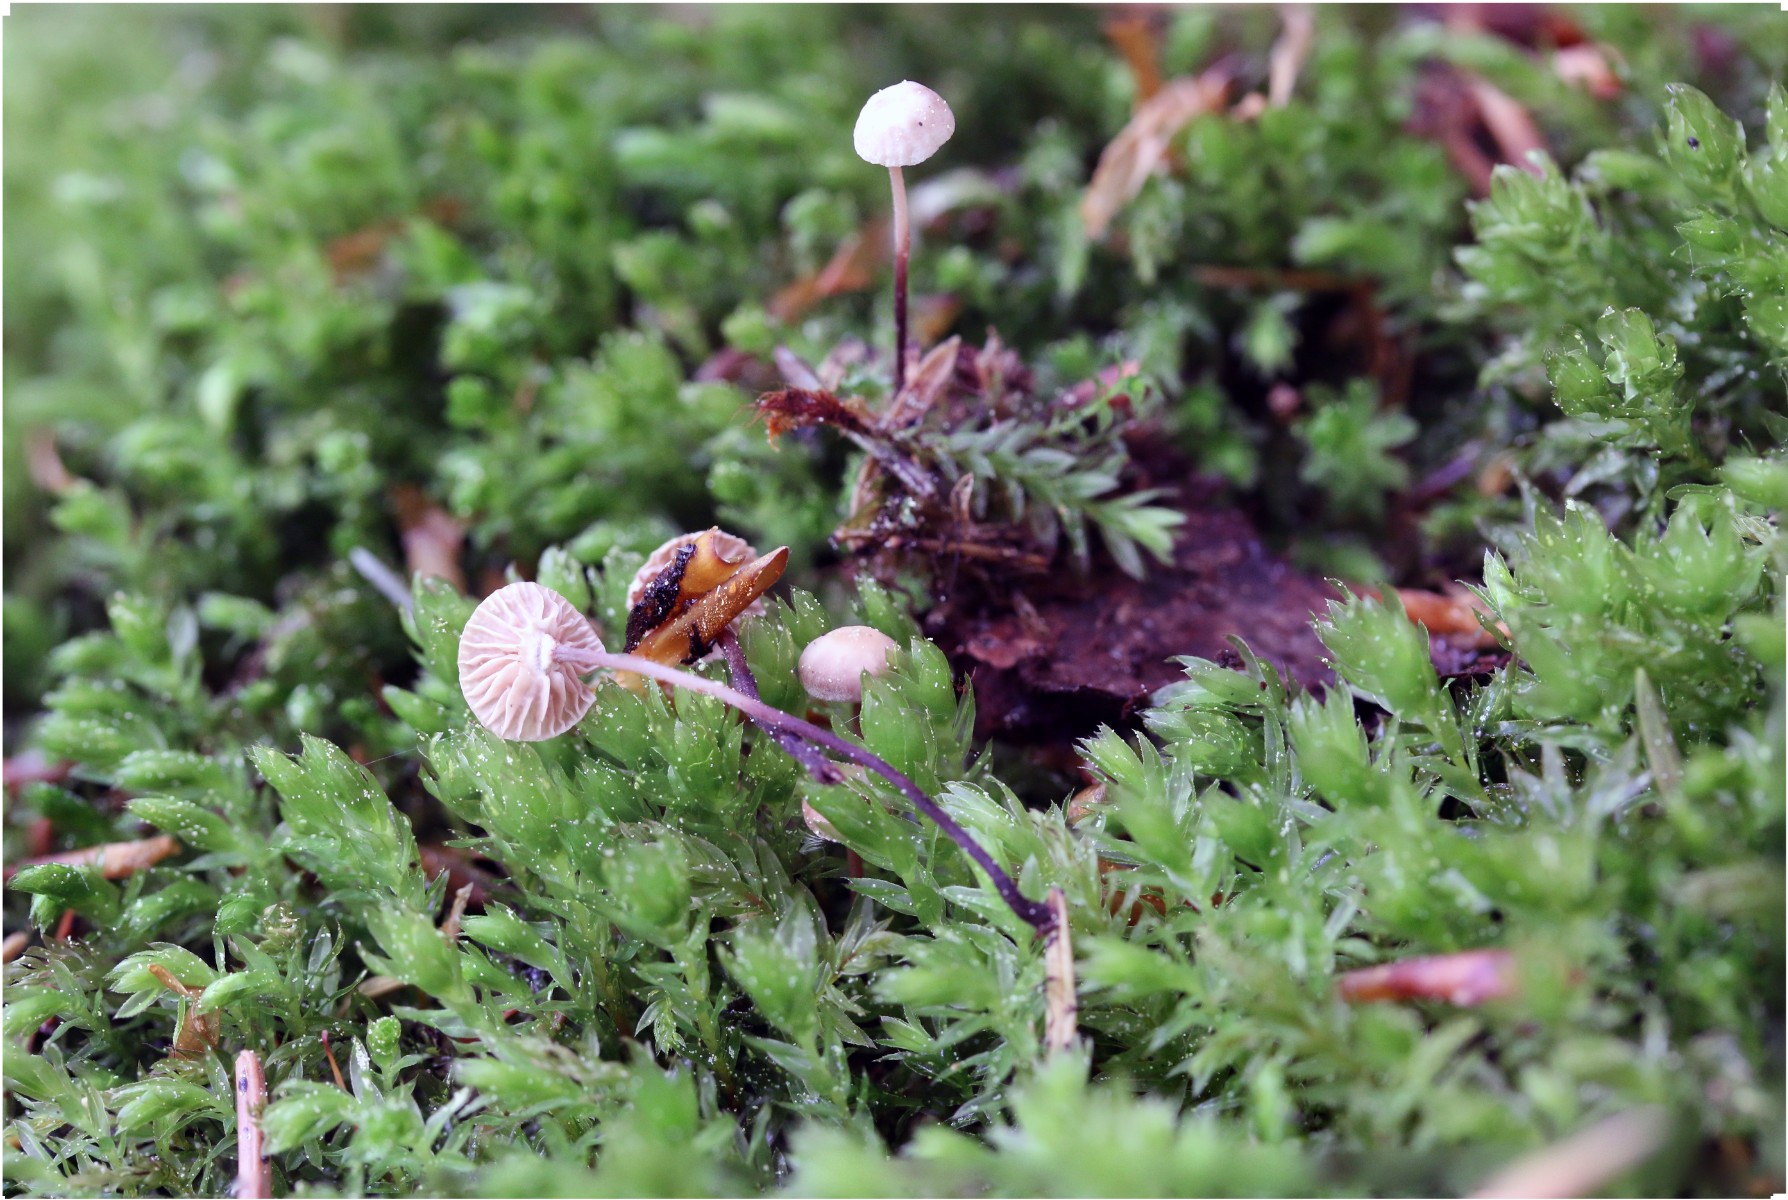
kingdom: Fungi
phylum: Basidiomycota
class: Agaricomycetes
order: Agaricales
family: Omphalotaceae
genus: Paragymnopus
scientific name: Paragymnopus perforans
